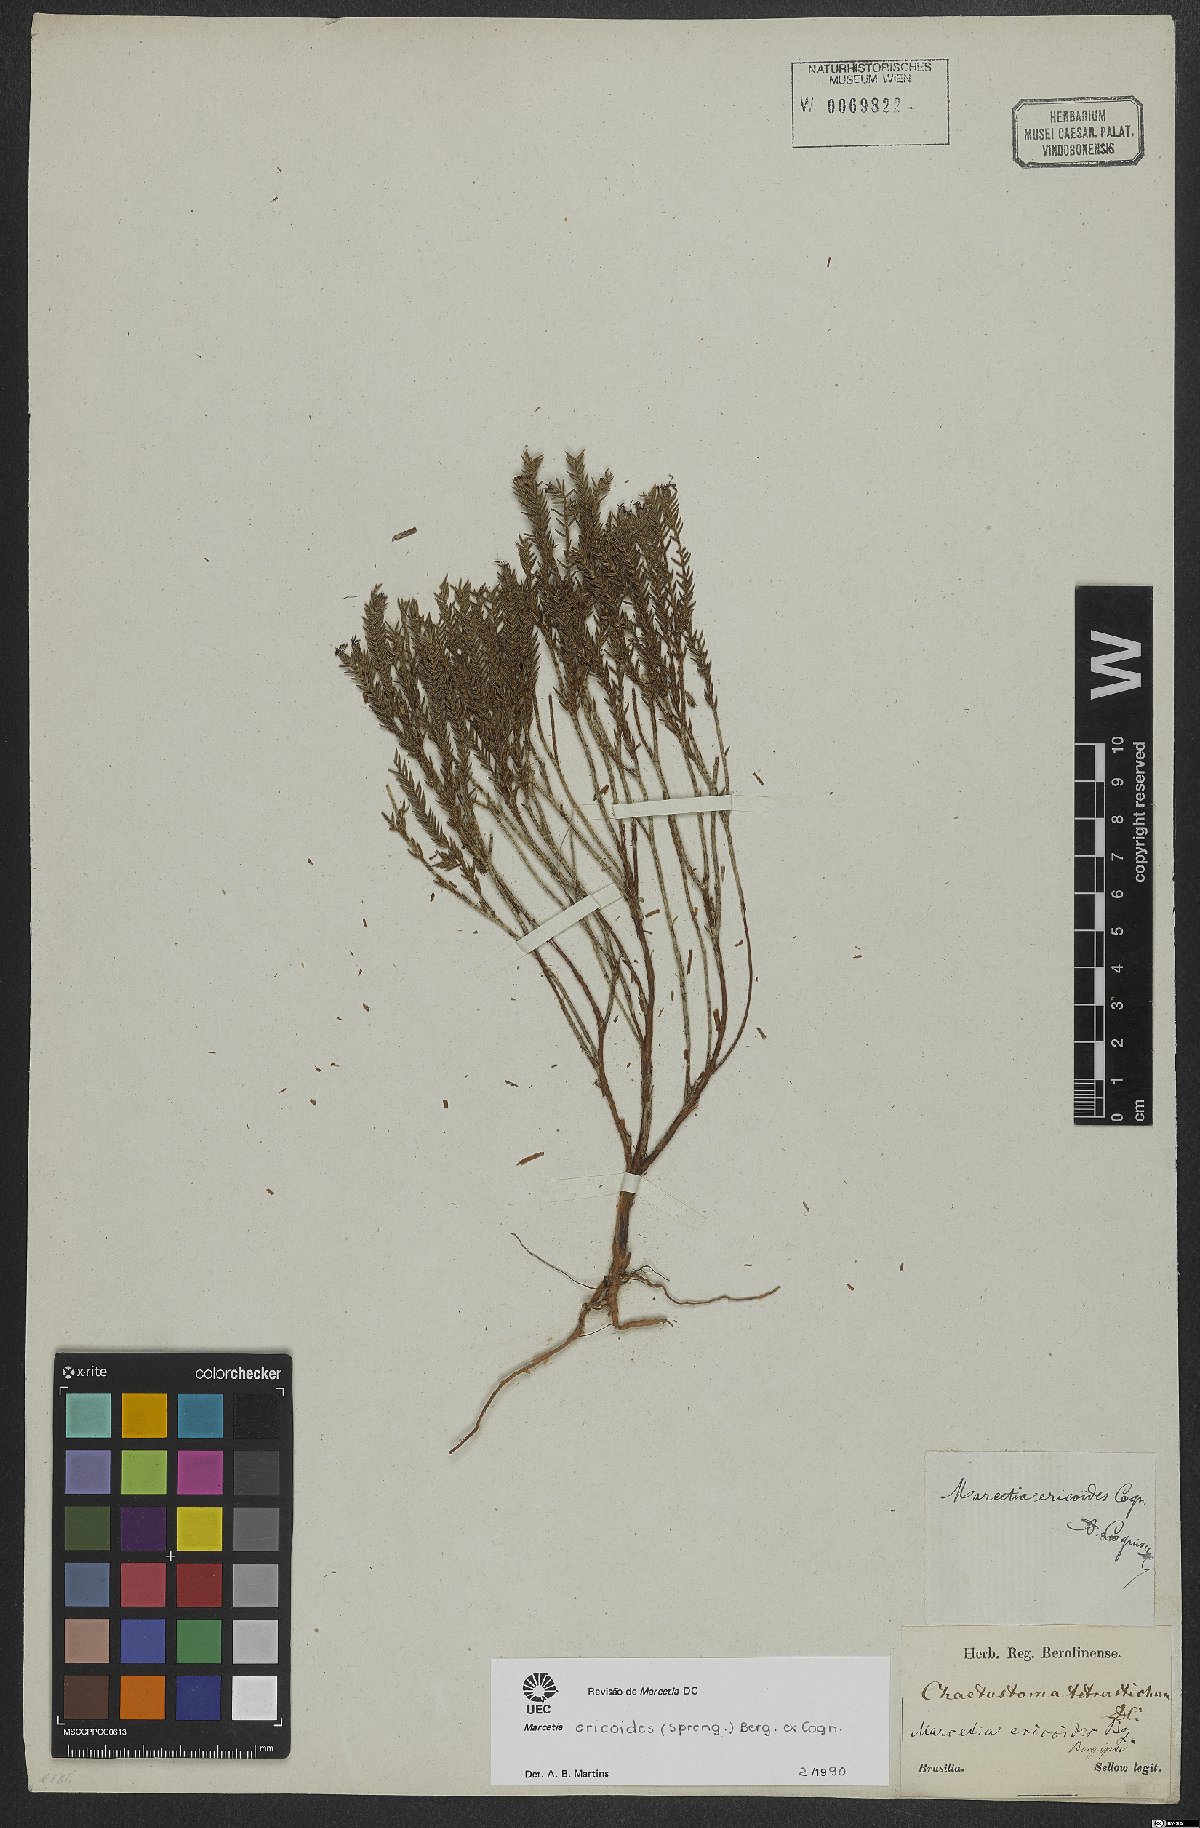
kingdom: Plantae
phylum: Tracheophyta
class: Magnoliopsida
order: Myrtales
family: Melastomataceae
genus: Marcetia
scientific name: Marcetia ericoides
